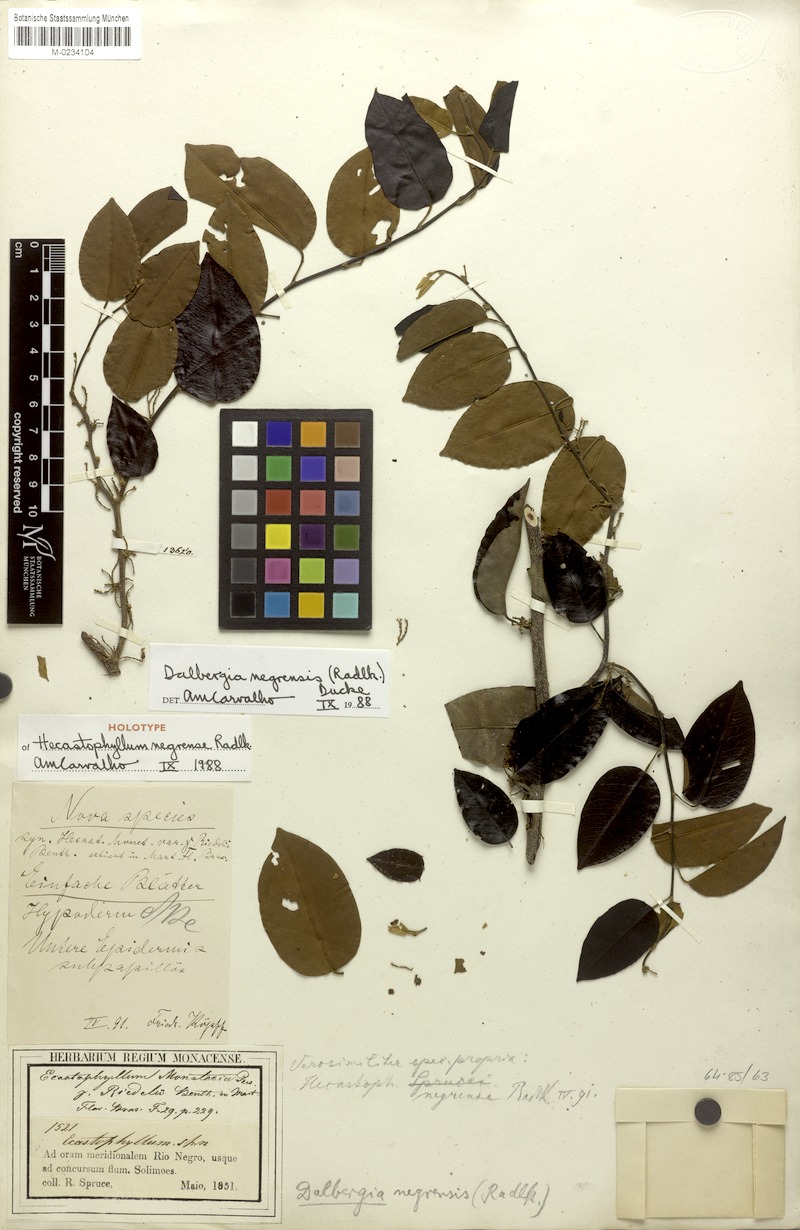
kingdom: Plantae
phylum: Tracheophyta
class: Magnoliopsida
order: Fabales
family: Fabaceae
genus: Dalbergia
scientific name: Dalbergia negrensis
